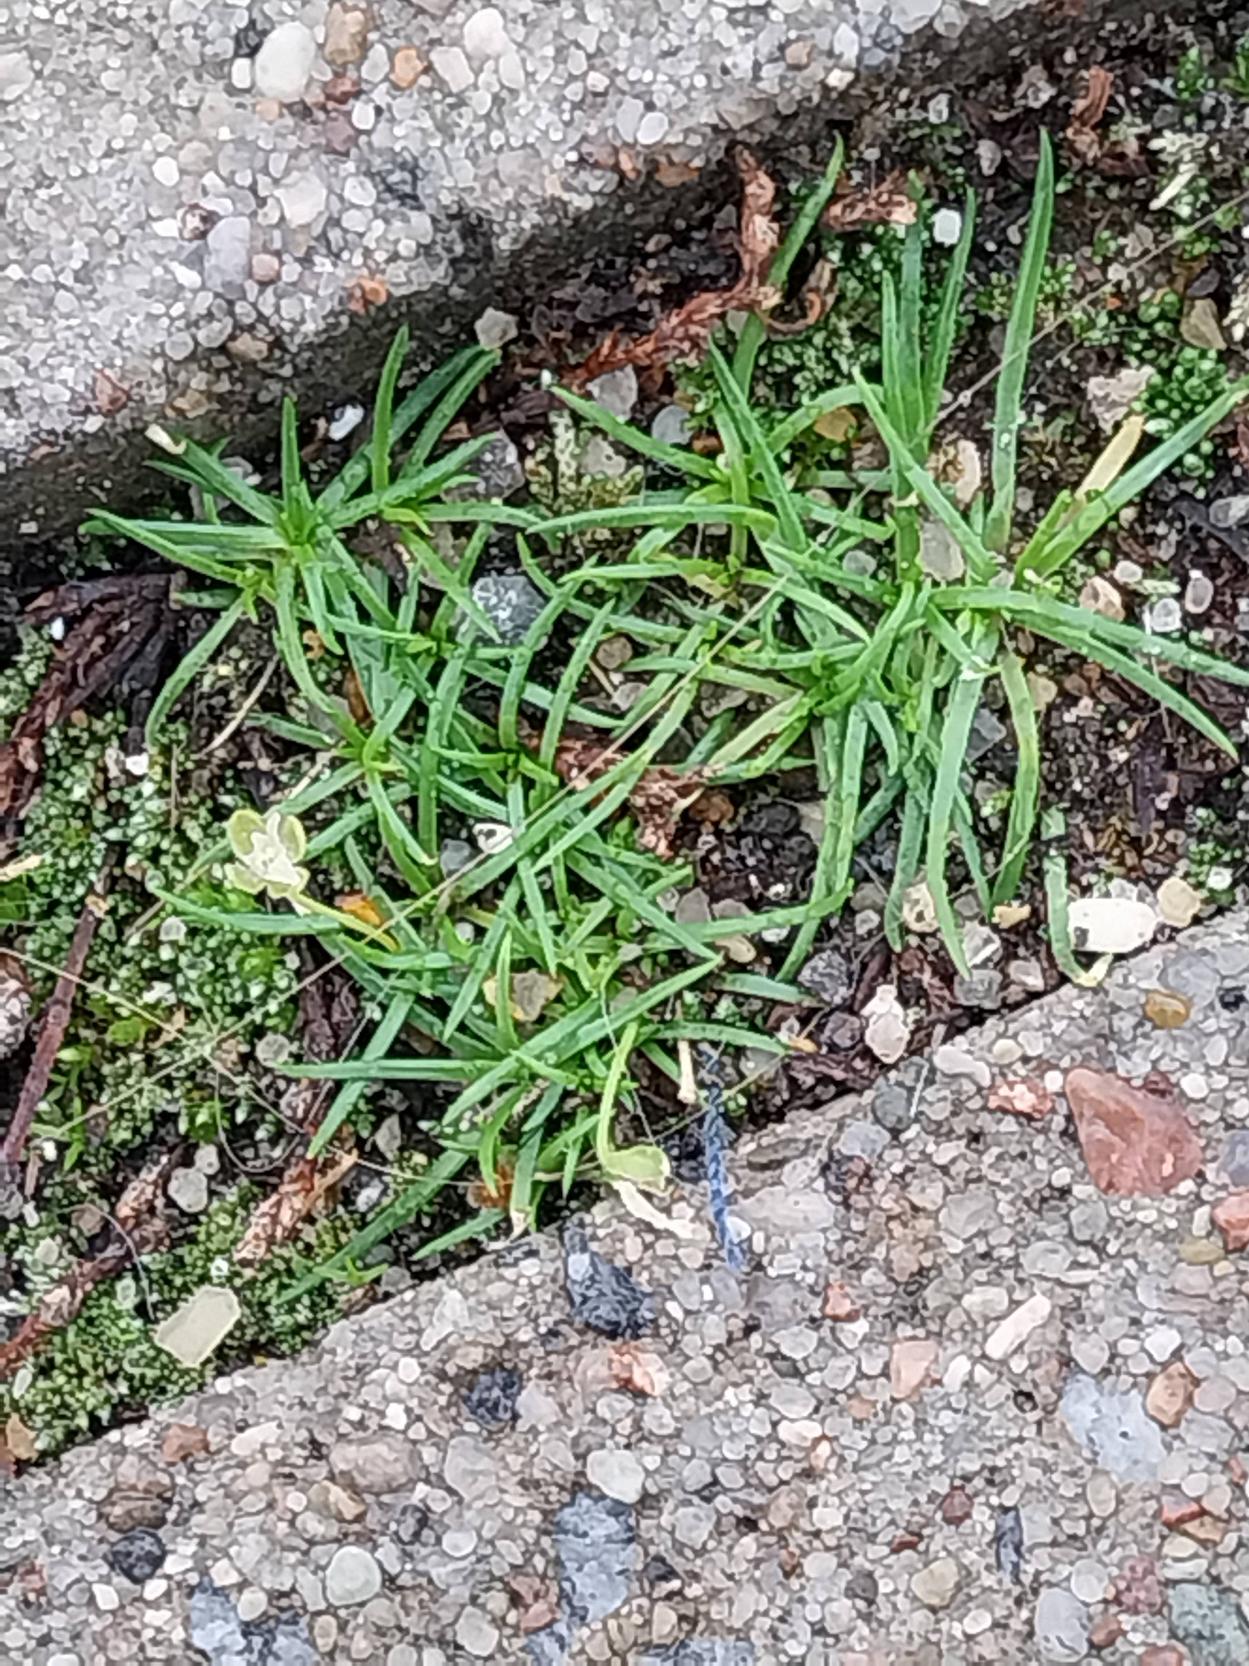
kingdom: Plantae
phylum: Tracheophyta
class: Magnoliopsida
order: Caryophyllales
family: Caryophyllaceae
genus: Sagina
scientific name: Sagina procumbens
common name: Almindelig firling
